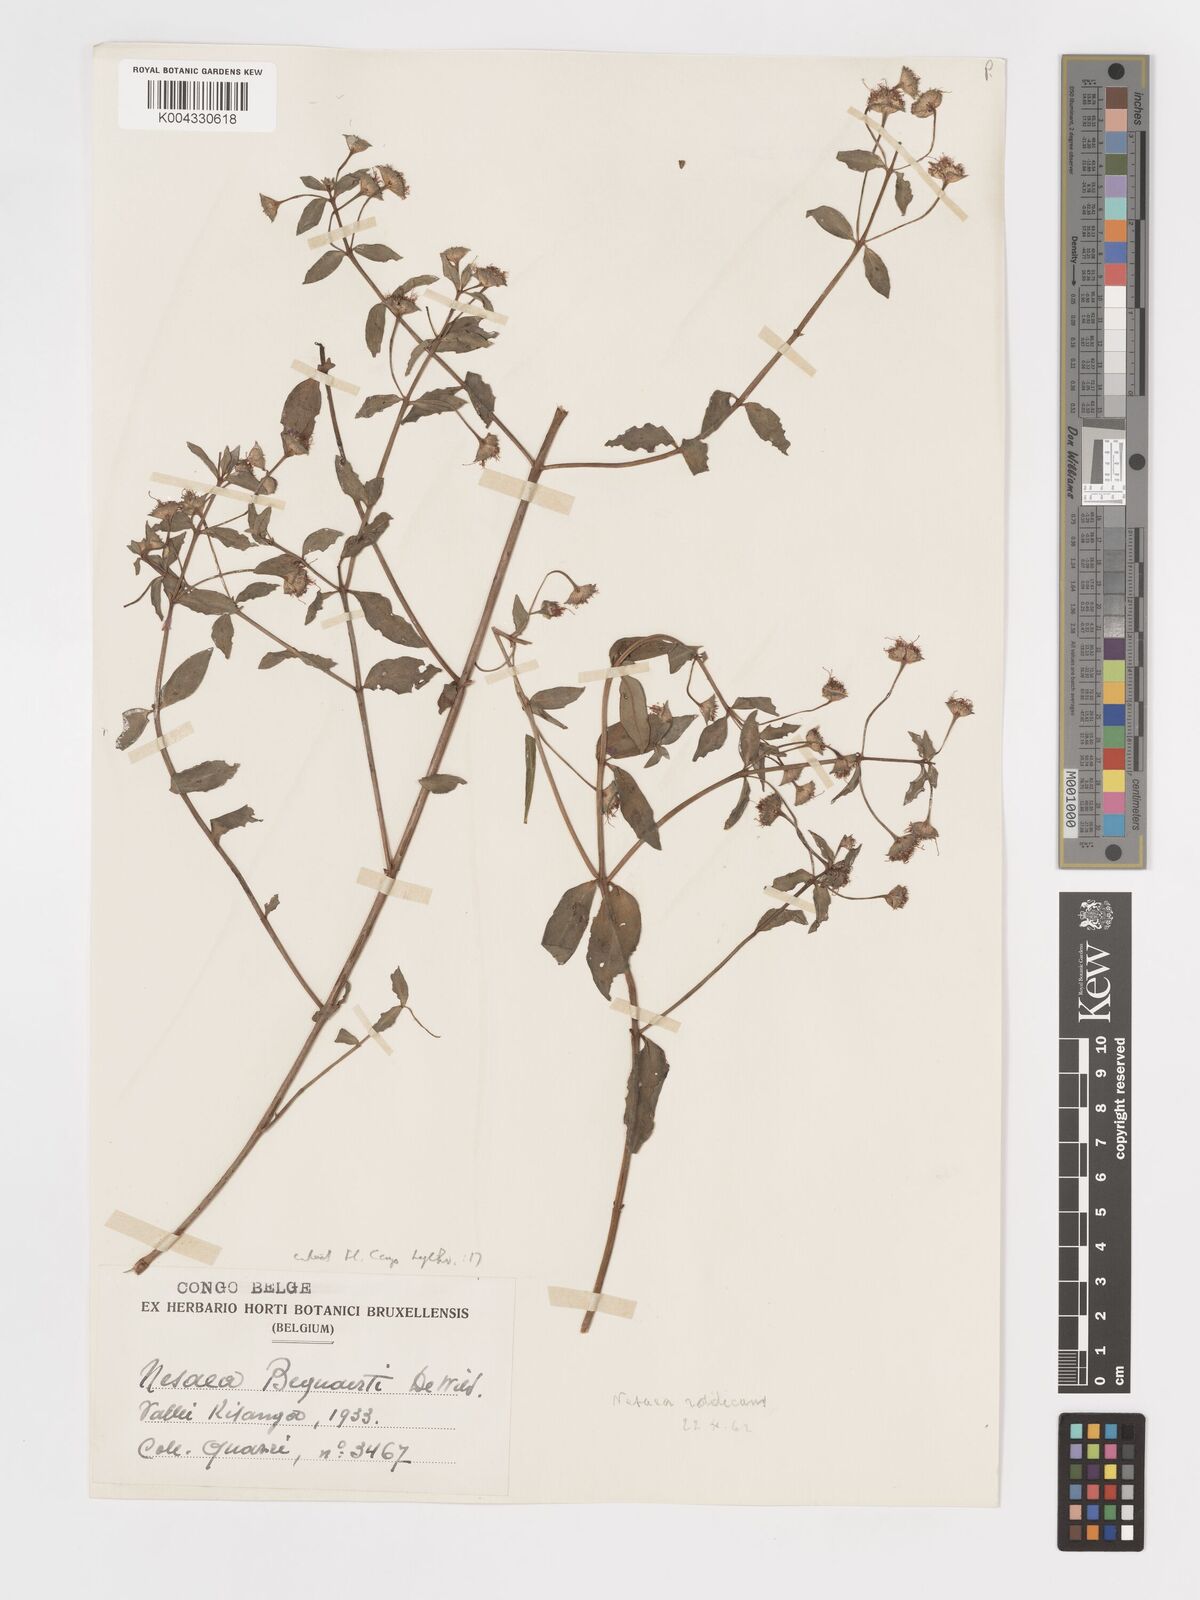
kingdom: Plantae
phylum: Tracheophyta
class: Magnoliopsida
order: Myrtales
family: Lythraceae
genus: Ammannia
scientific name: Ammannia radicans
